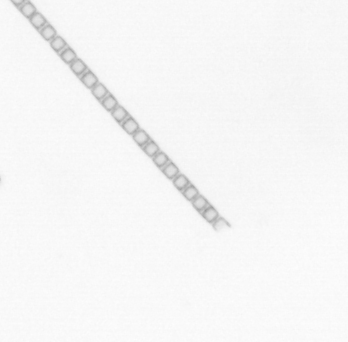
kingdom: Chromista
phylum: Ochrophyta
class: Bacillariophyceae
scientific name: Bacillariophyceae
